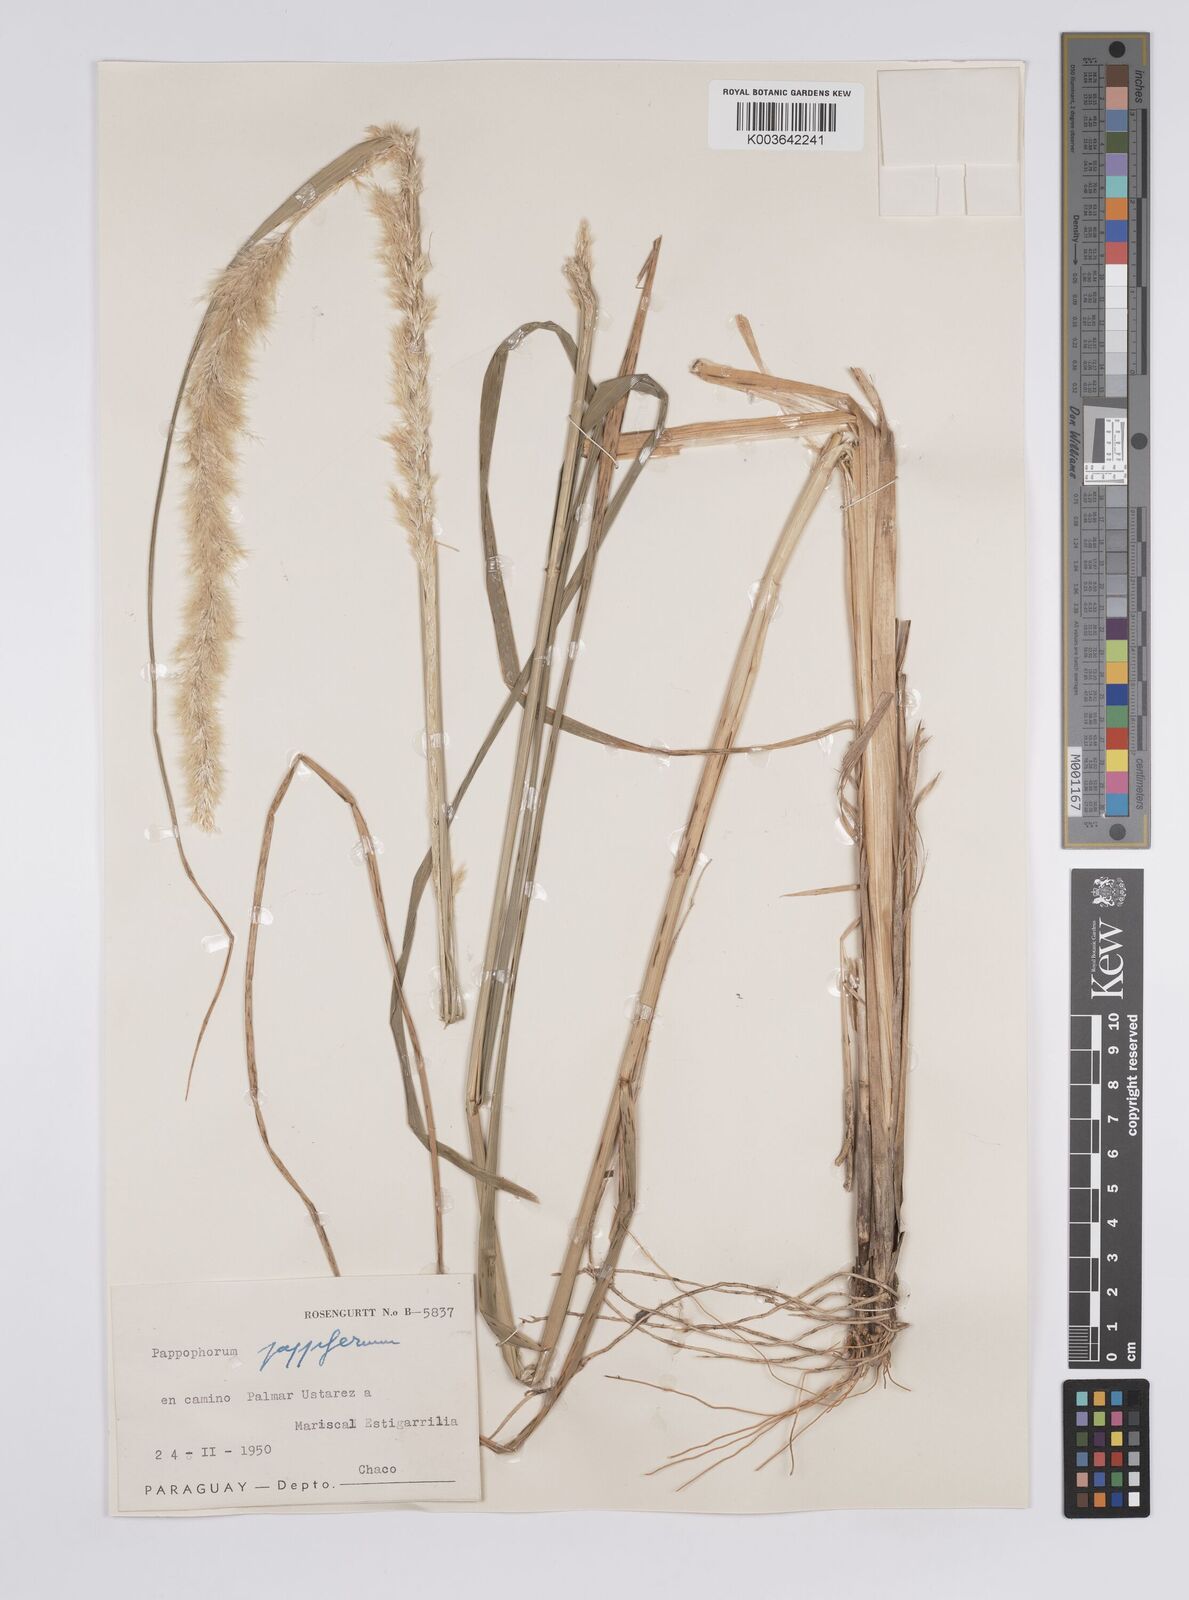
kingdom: Plantae
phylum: Tracheophyta
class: Liliopsida
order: Poales
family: Poaceae
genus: Pappophorum
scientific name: Pappophorum pappiferum
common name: Crabgrass
